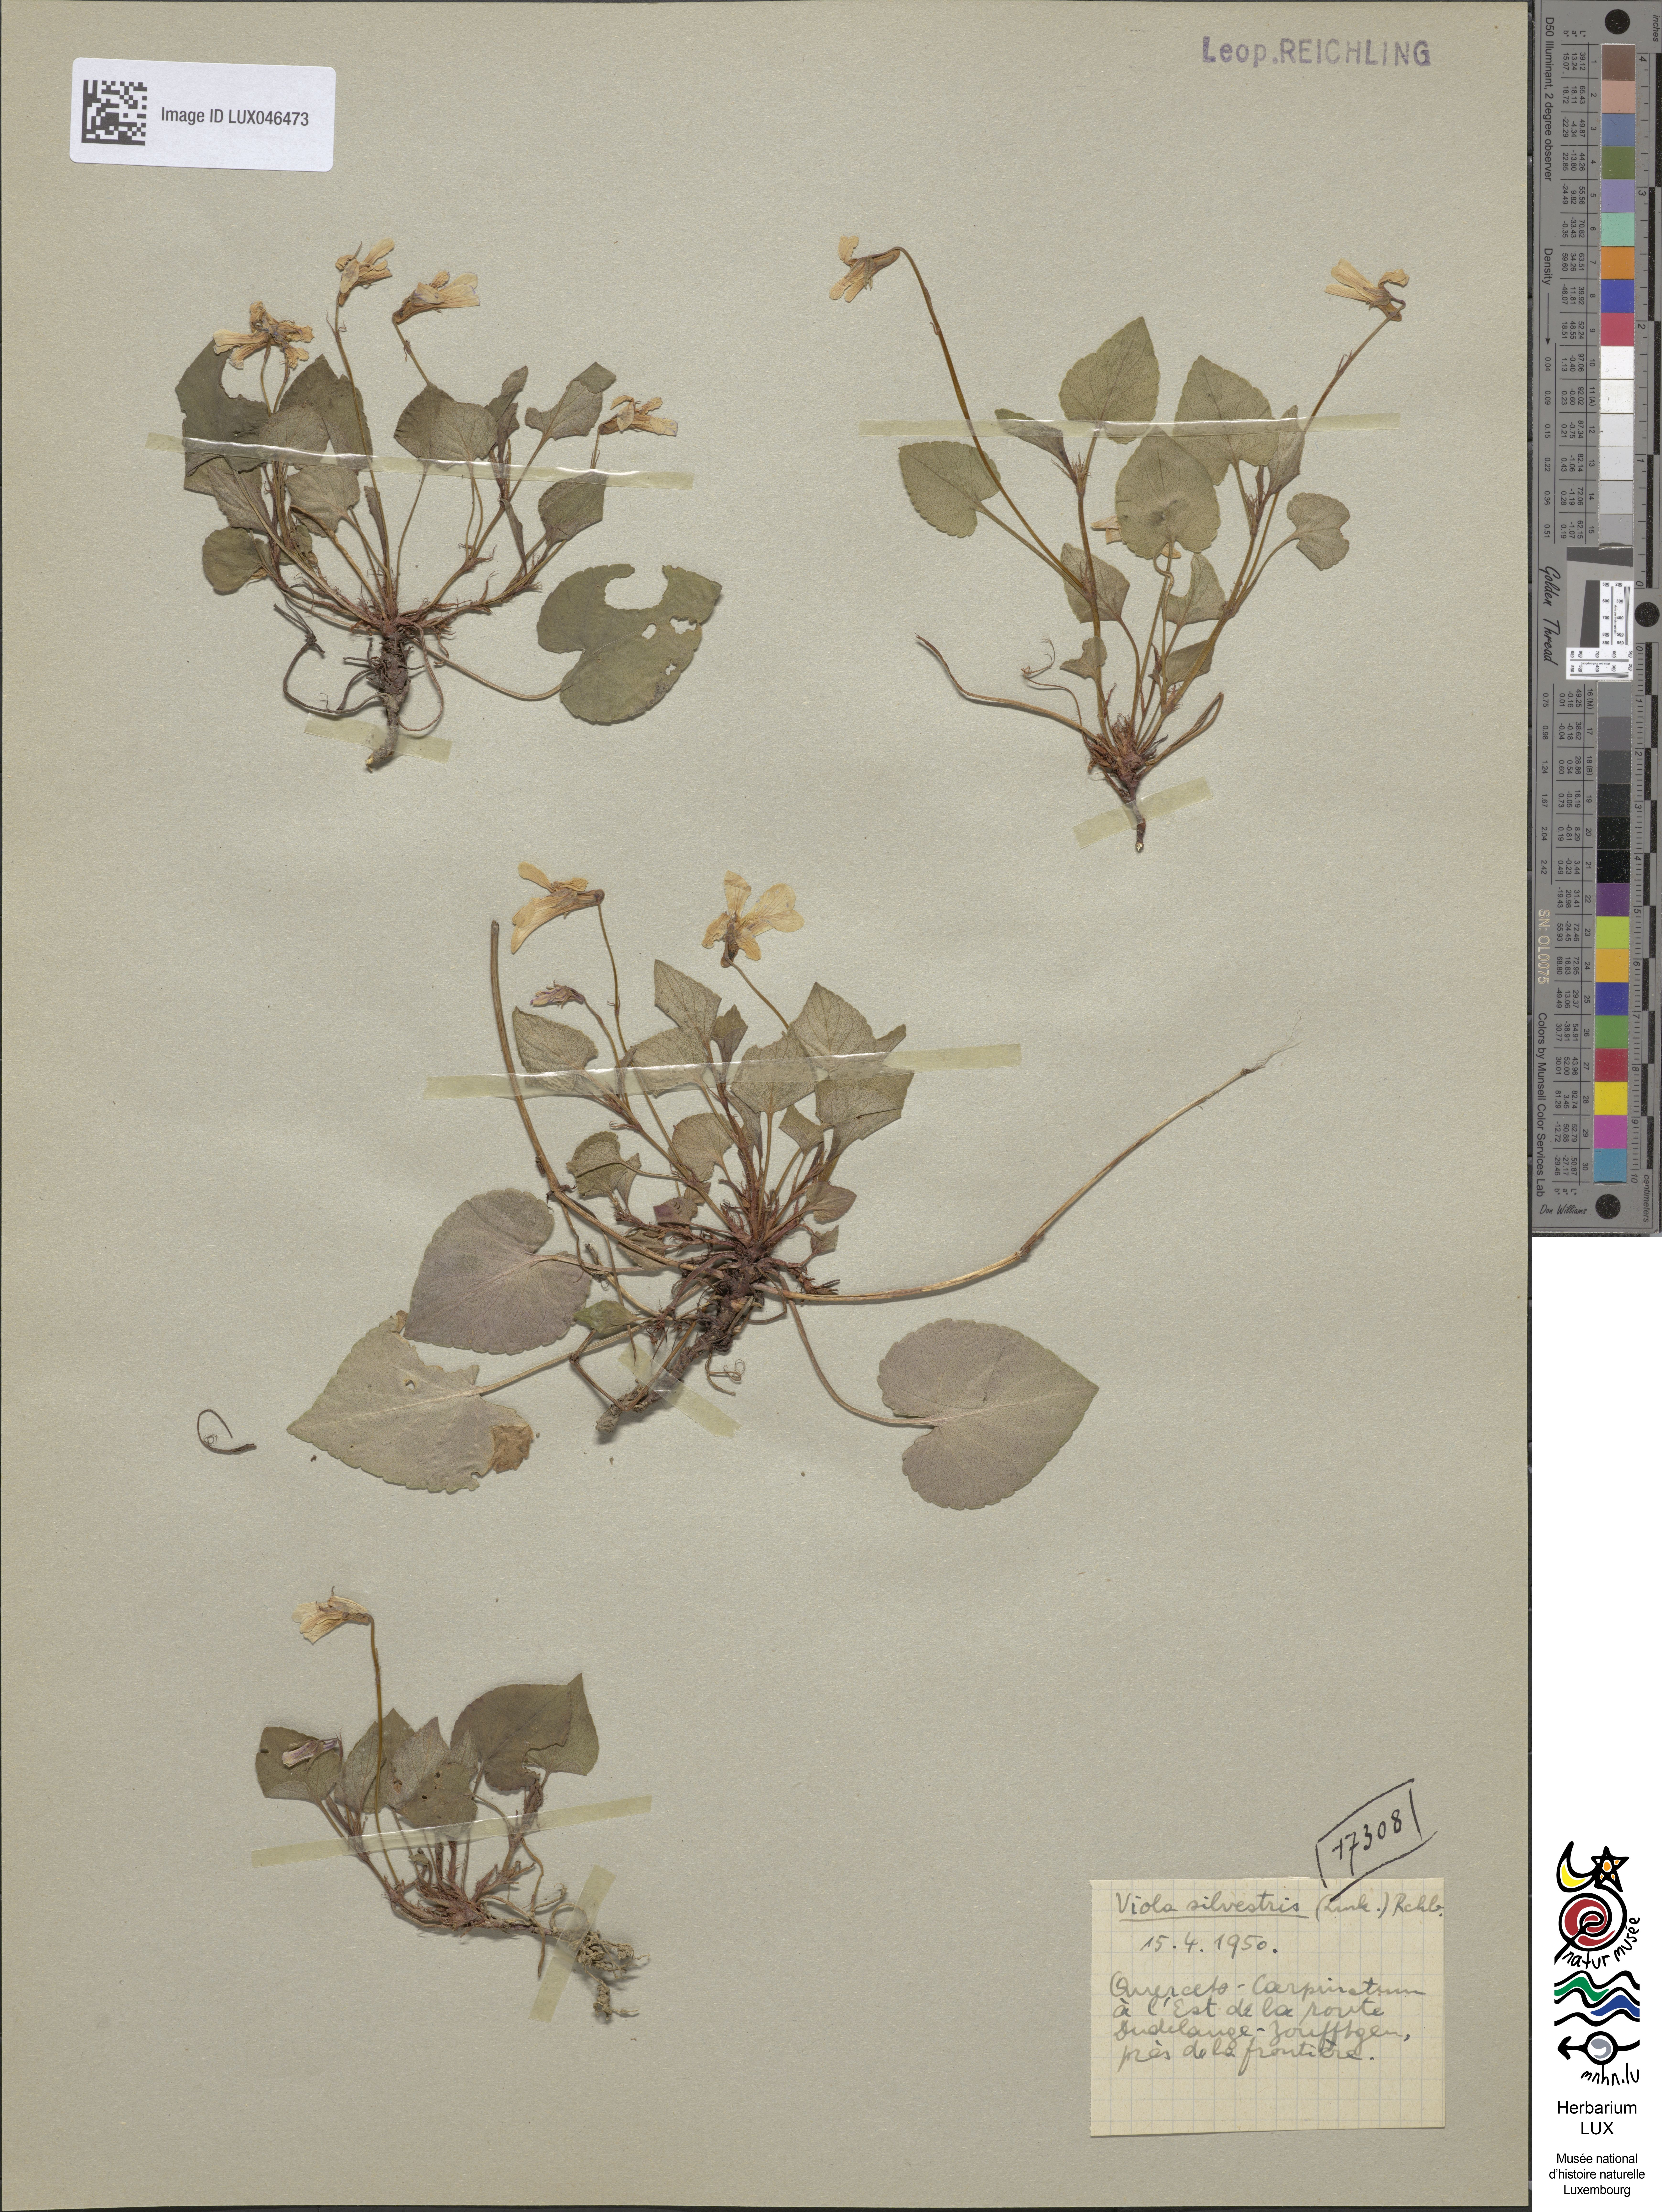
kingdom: Plantae
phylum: Tracheophyta
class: Magnoliopsida
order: Malpighiales
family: Violaceae
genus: Viola
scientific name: Viola reichenbachiana
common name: Early dog-violet
